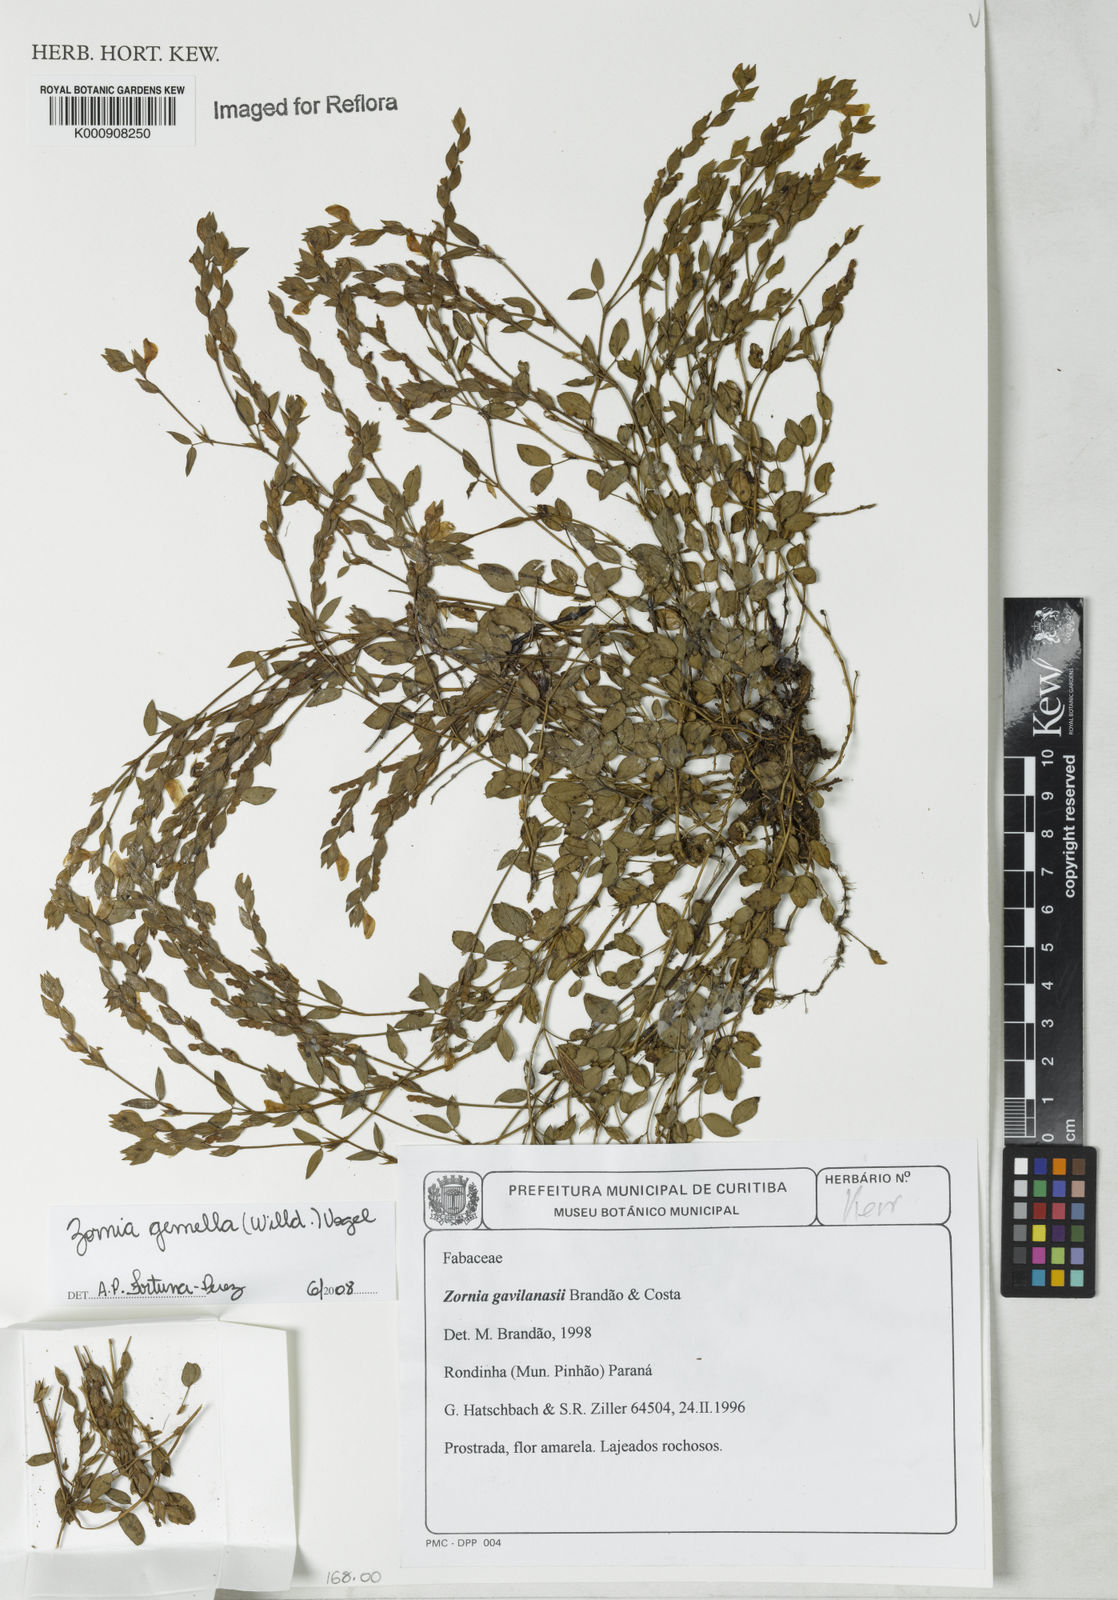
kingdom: Plantae
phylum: Tracheophyta
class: Magnoliopsida
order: Fabales
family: Fabaceae
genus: Zornia
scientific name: Zornia latifolia
